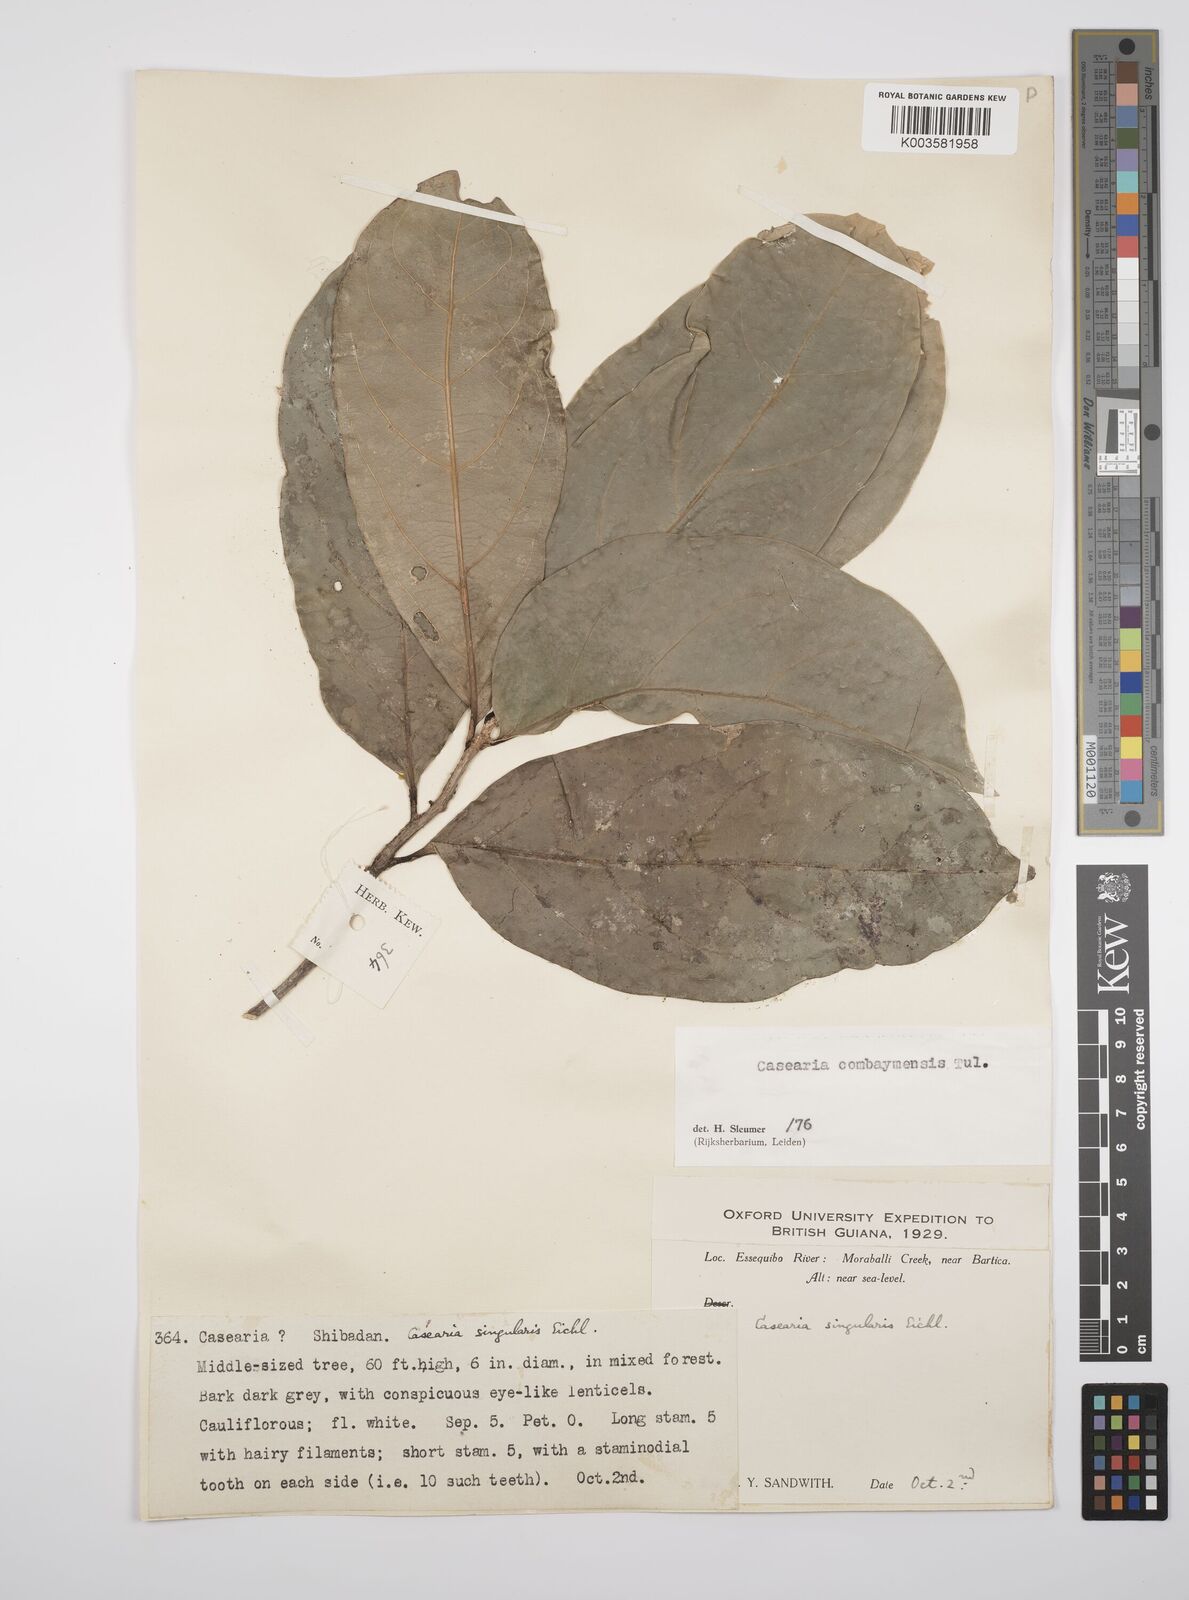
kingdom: Plantae
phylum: Tracheophyta
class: Magnoliopsida
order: Malpighiales
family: Salicaceae
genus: Casearia
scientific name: Casearia combaymensis
